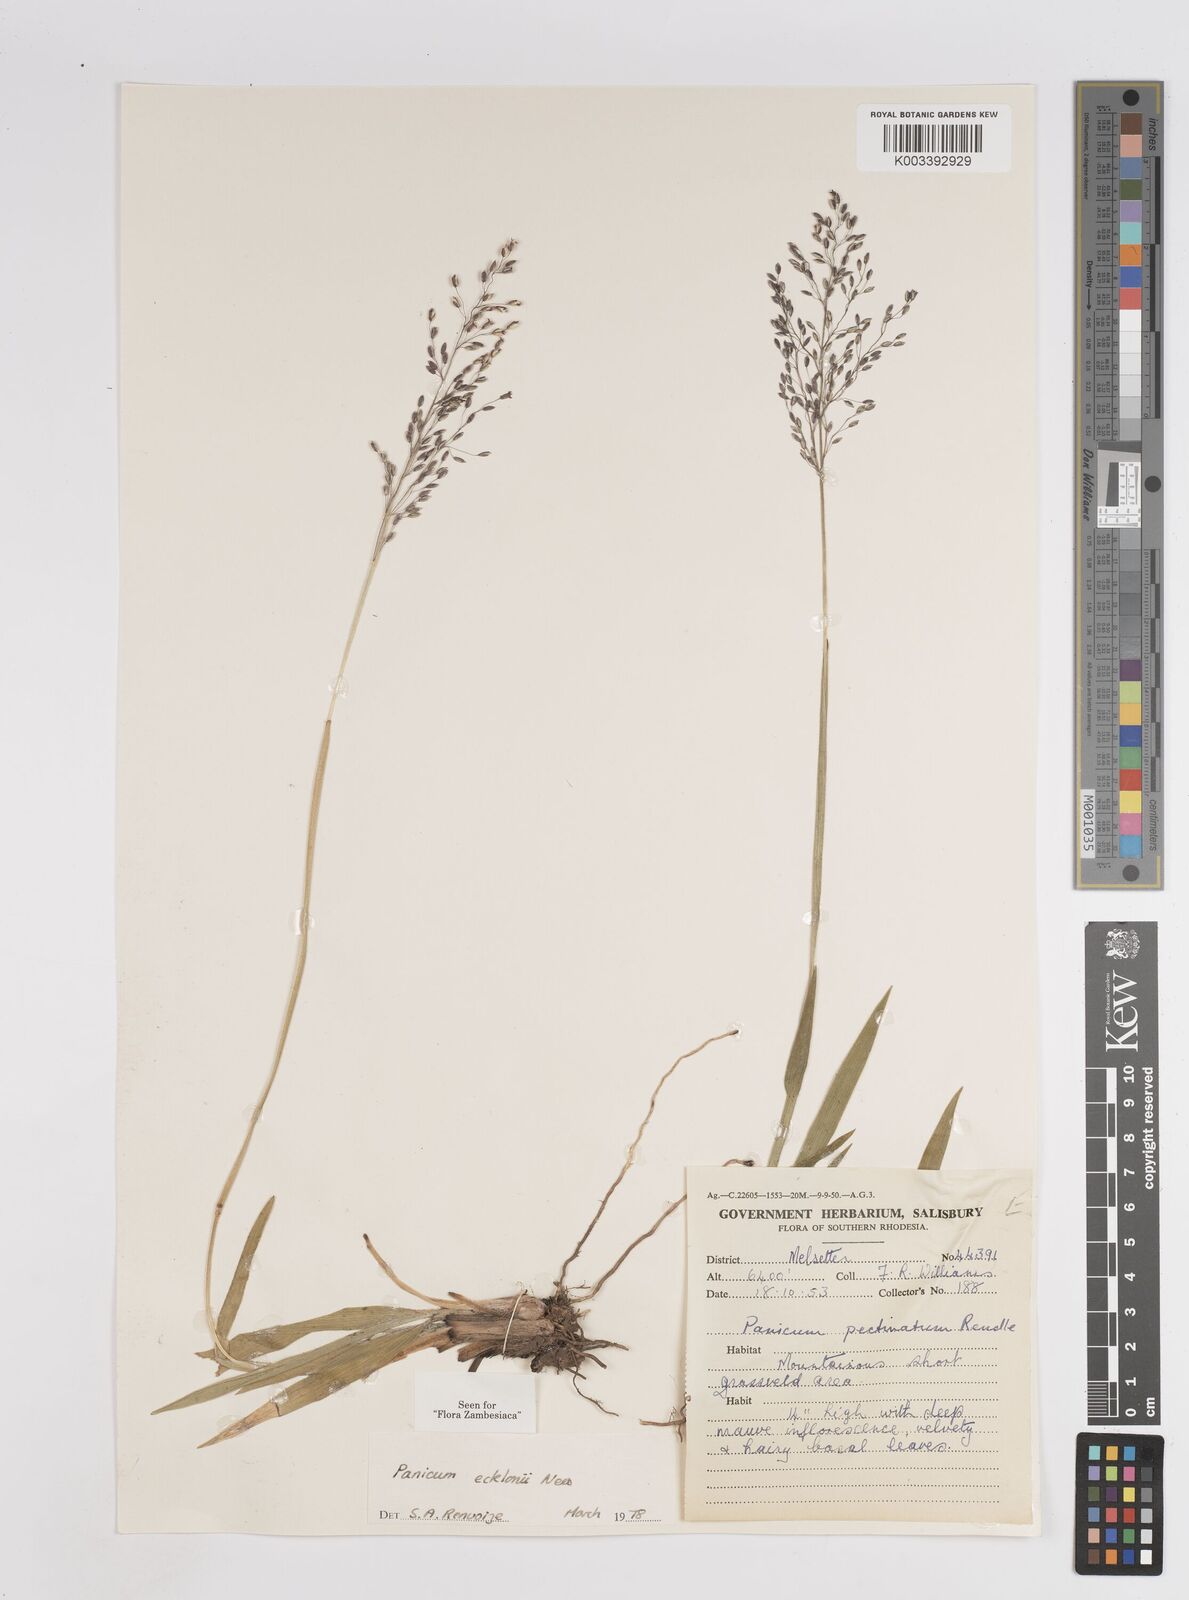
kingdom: Plantae
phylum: Tracheophyta
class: Liliopsida
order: Poales
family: Poaceae
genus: Adenochloa
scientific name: Adenochloa ecklonii
